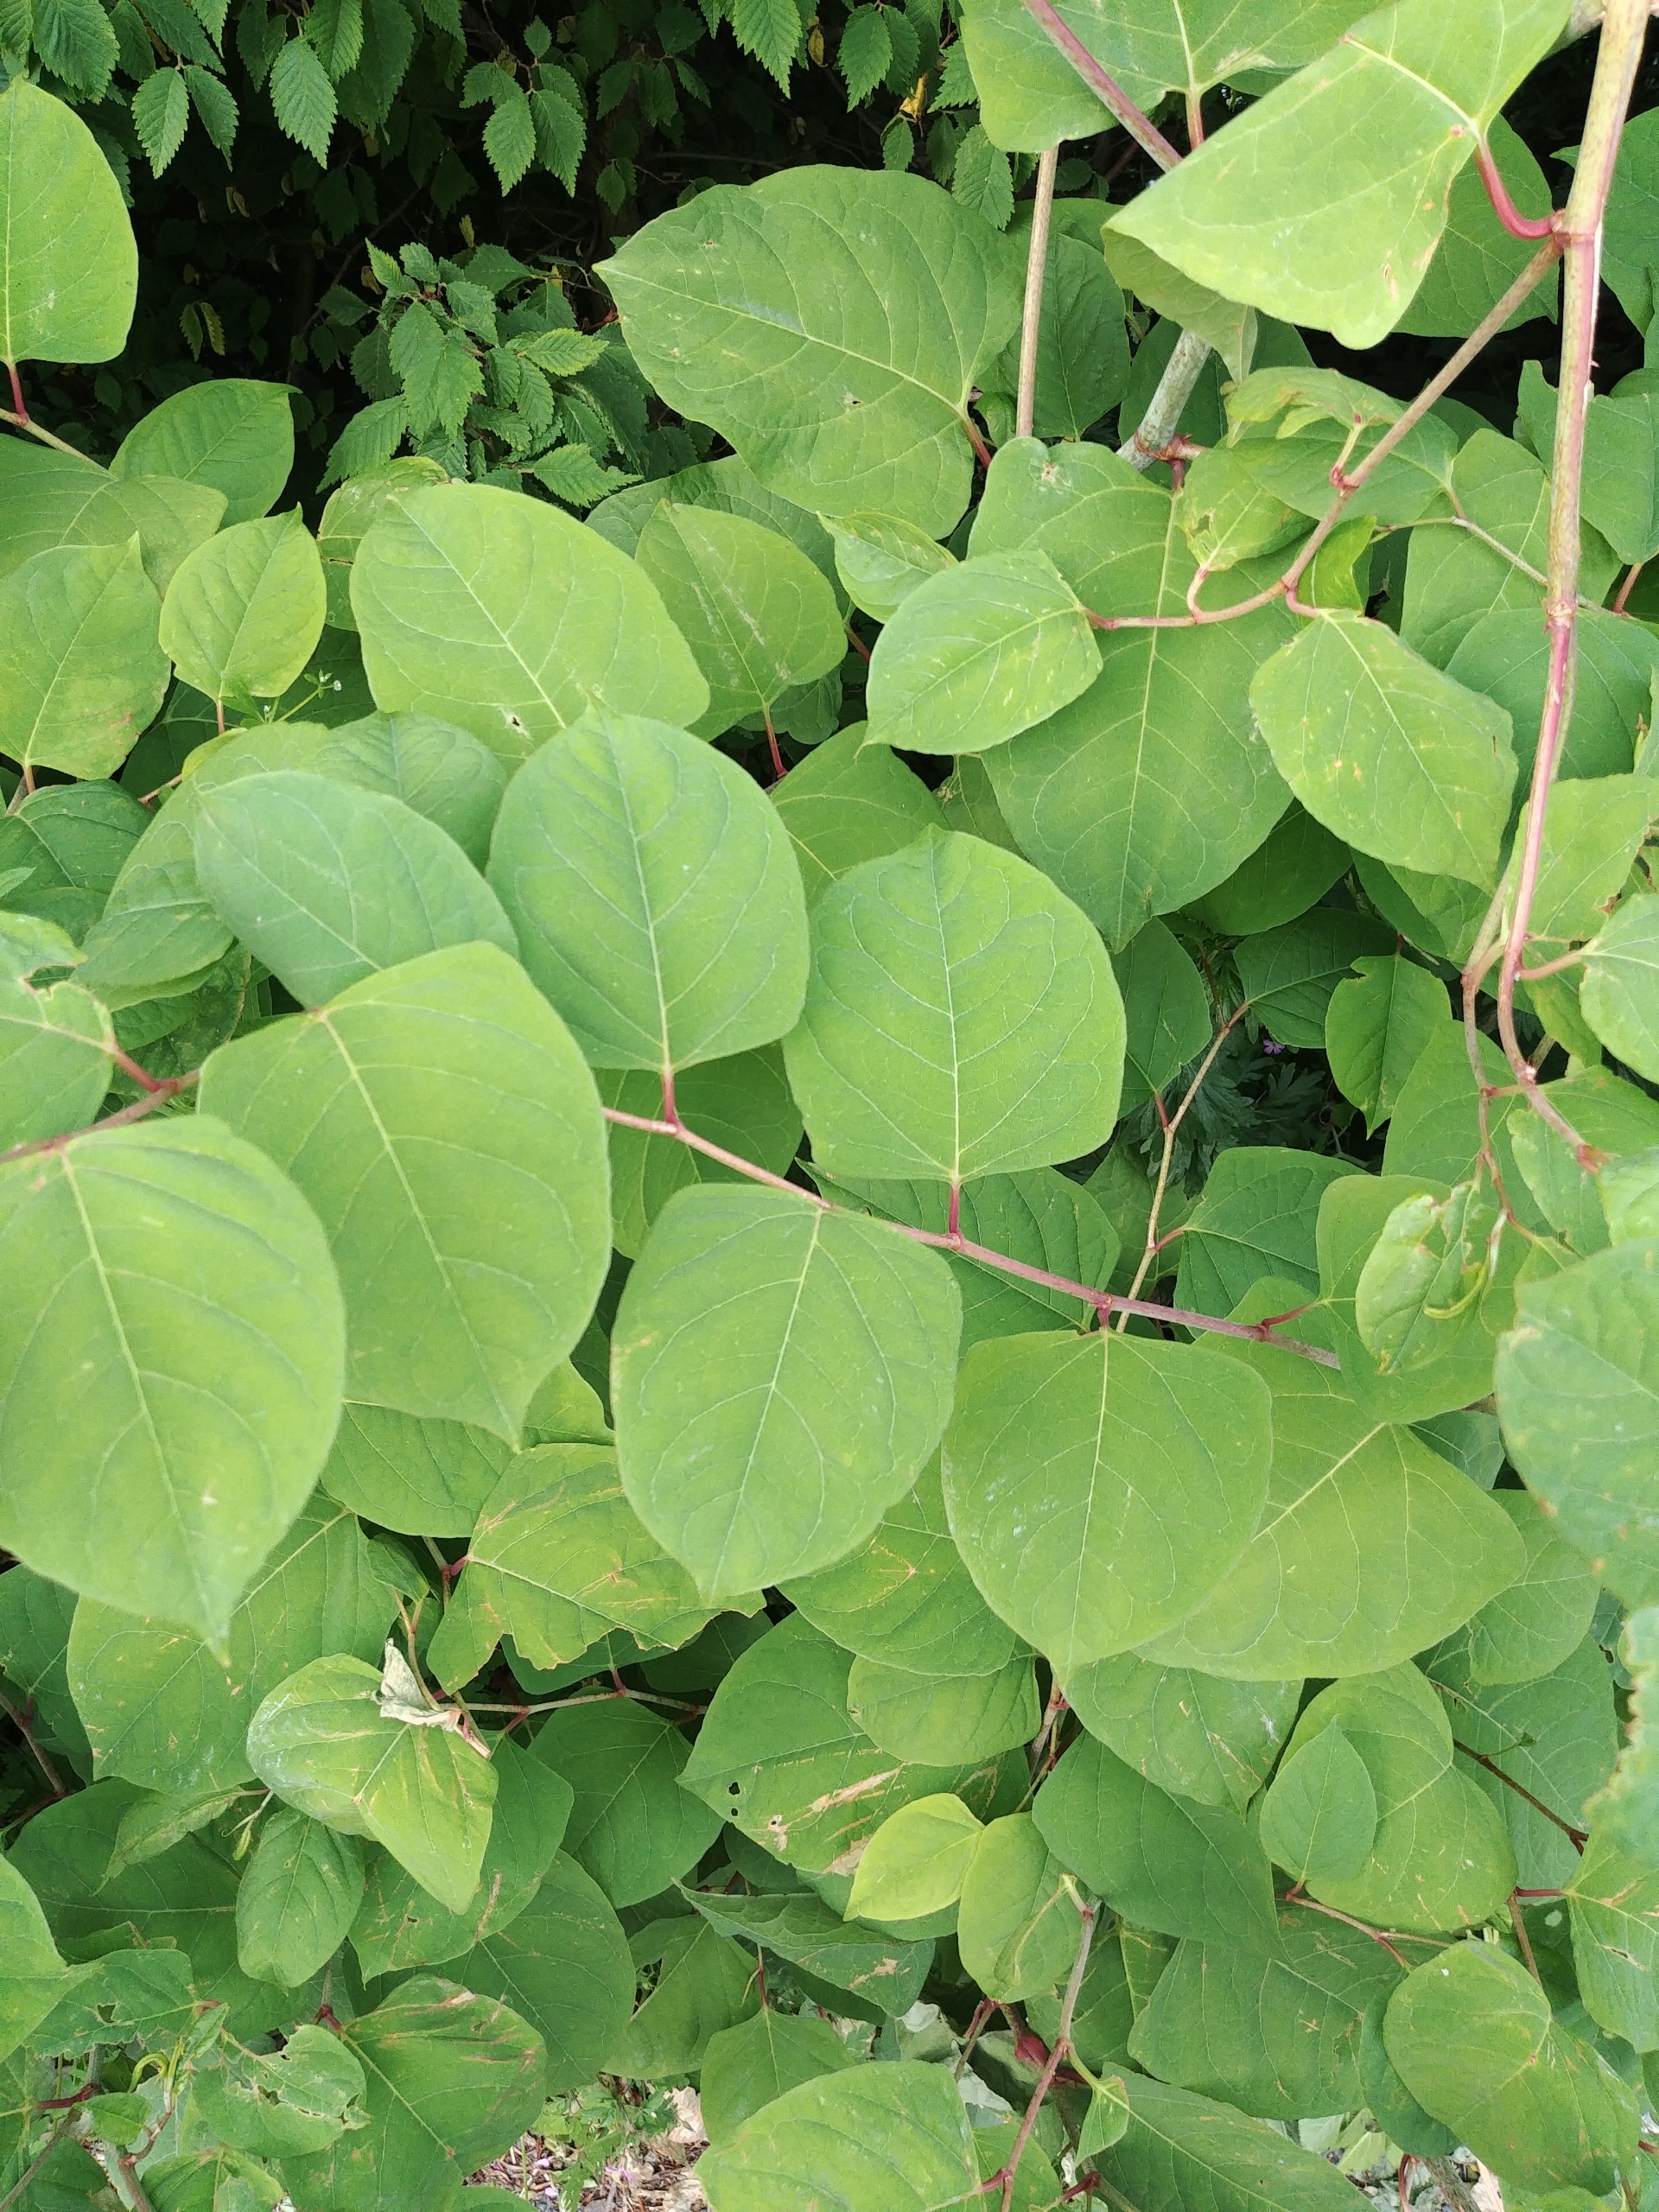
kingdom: Plantae
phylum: Tracheophyta
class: Magnoliopsida
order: Caryophyllales
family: Polygonaceae
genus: Reynoutria
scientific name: Reynoutria japonica
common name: Japan-pileurt
